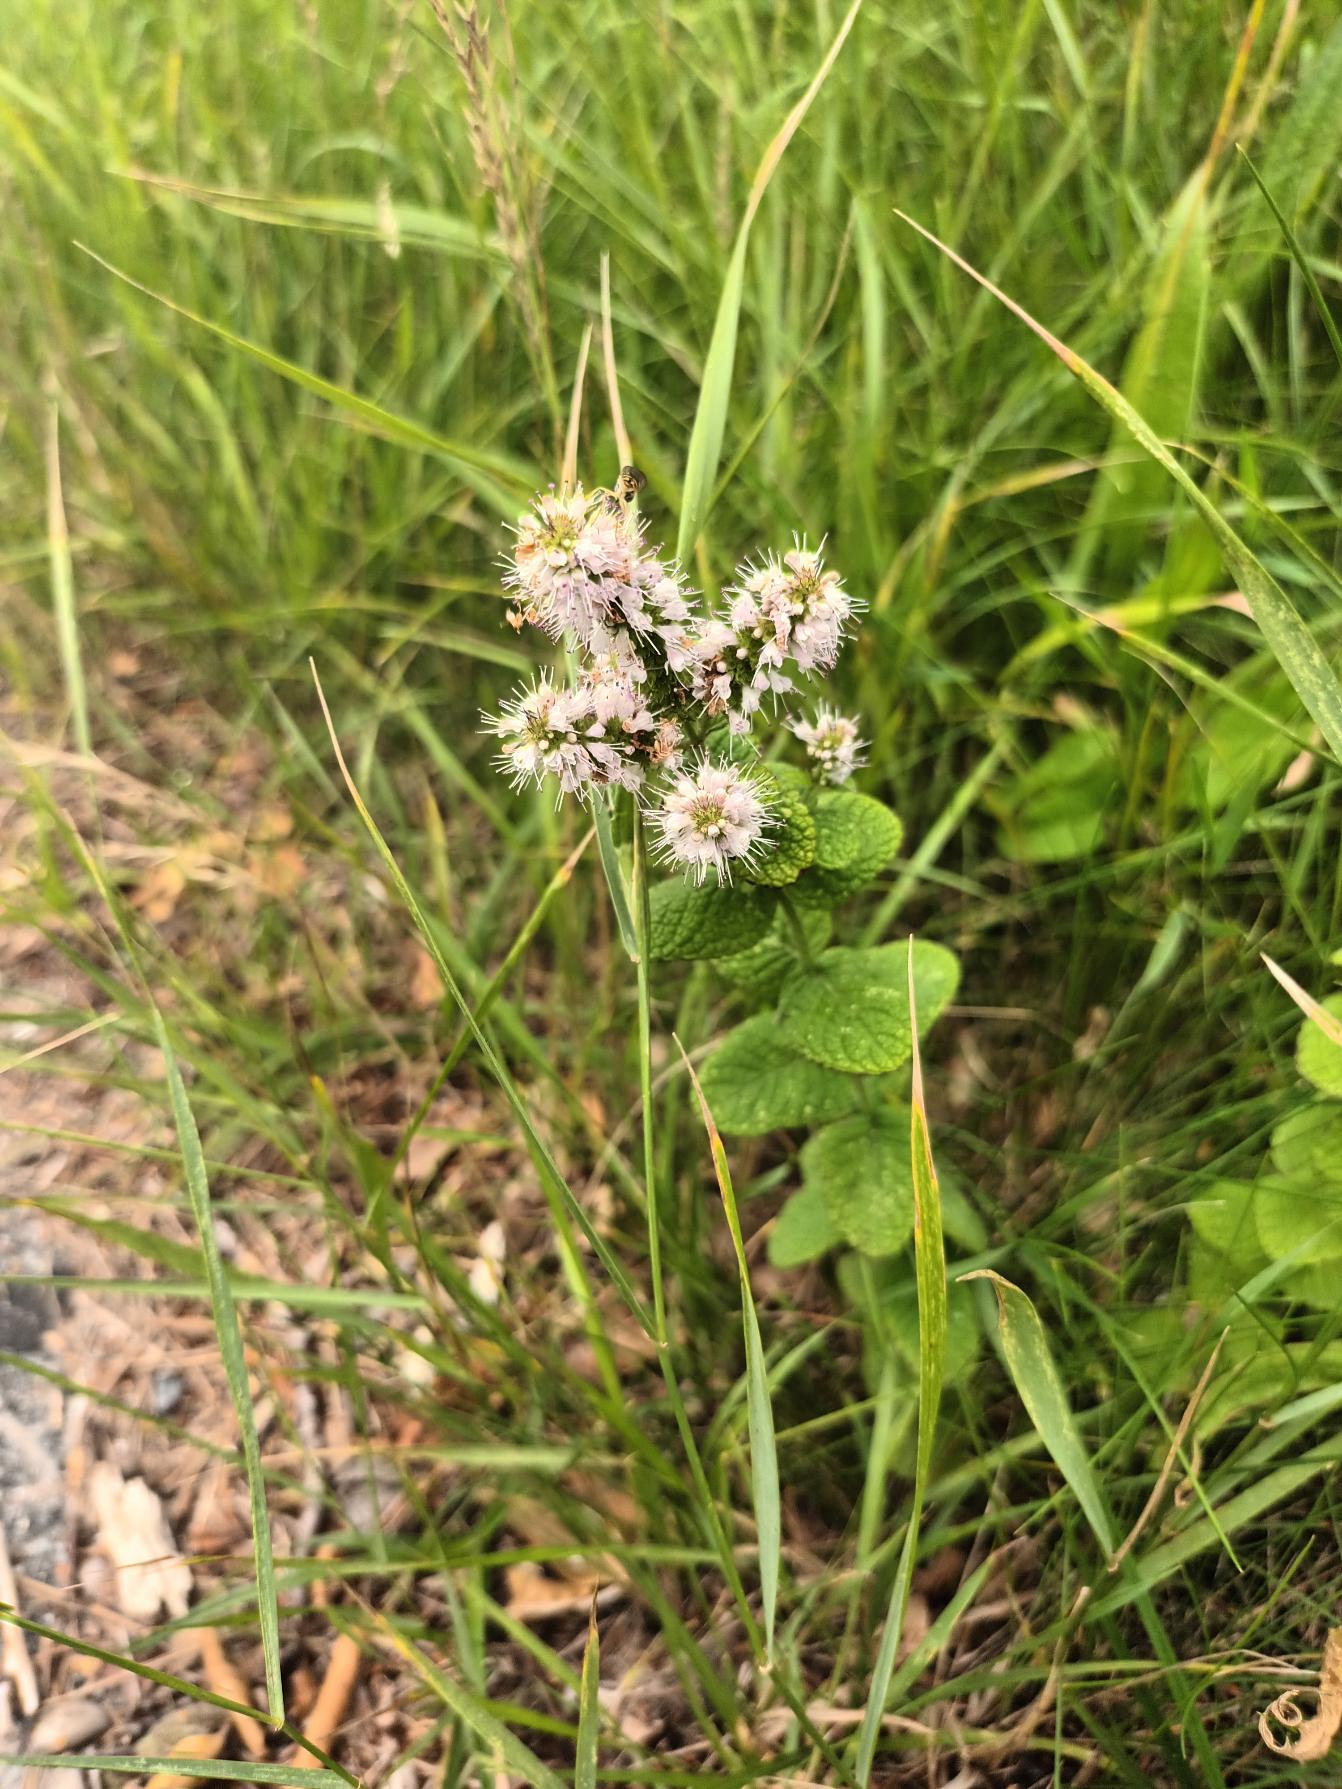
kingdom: Plantae
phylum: Tracheophyta
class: Magnoliopsida
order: Lamiales
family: Lamiaceae
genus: Mentha
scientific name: Mentha suaveolens
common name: Rundbladet mynte
